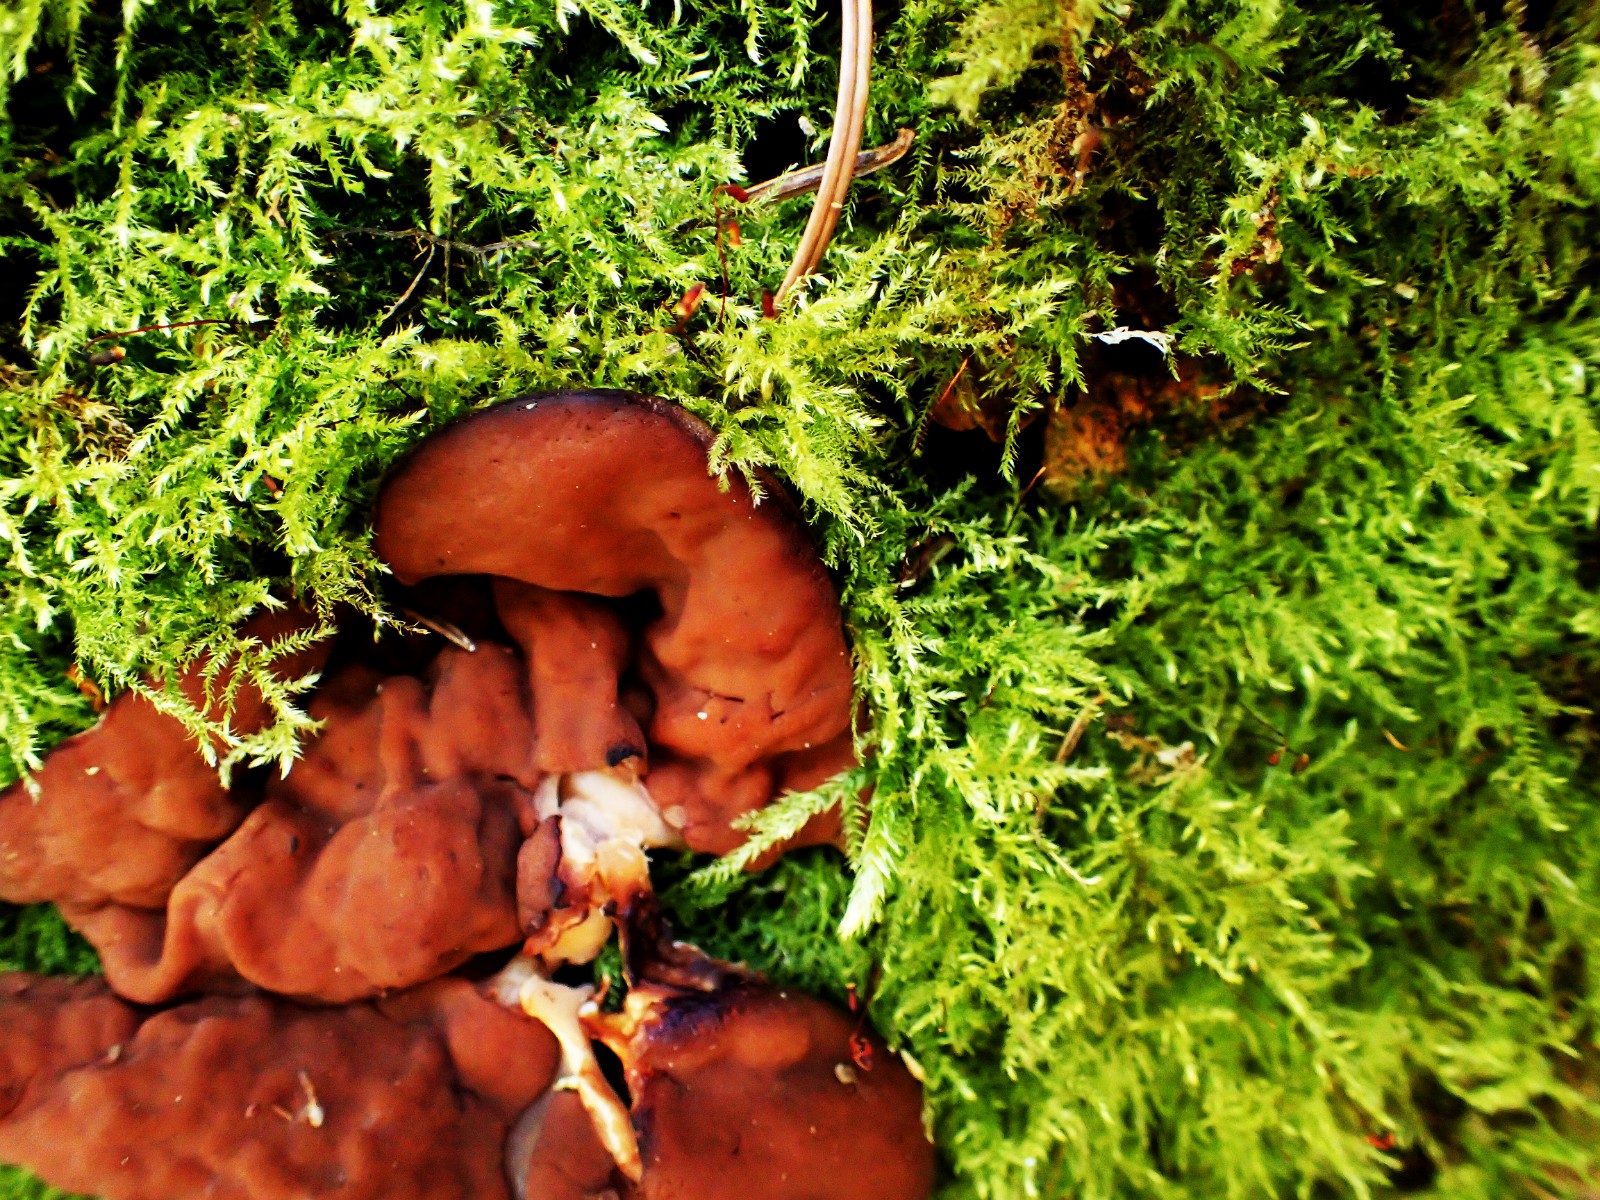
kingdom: Fungi
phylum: Ascomycota
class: Pezizomycetes
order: Pezizales
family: Discinaceae
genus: Discina
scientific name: Discina ancilis
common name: udbredt stenmorkel
